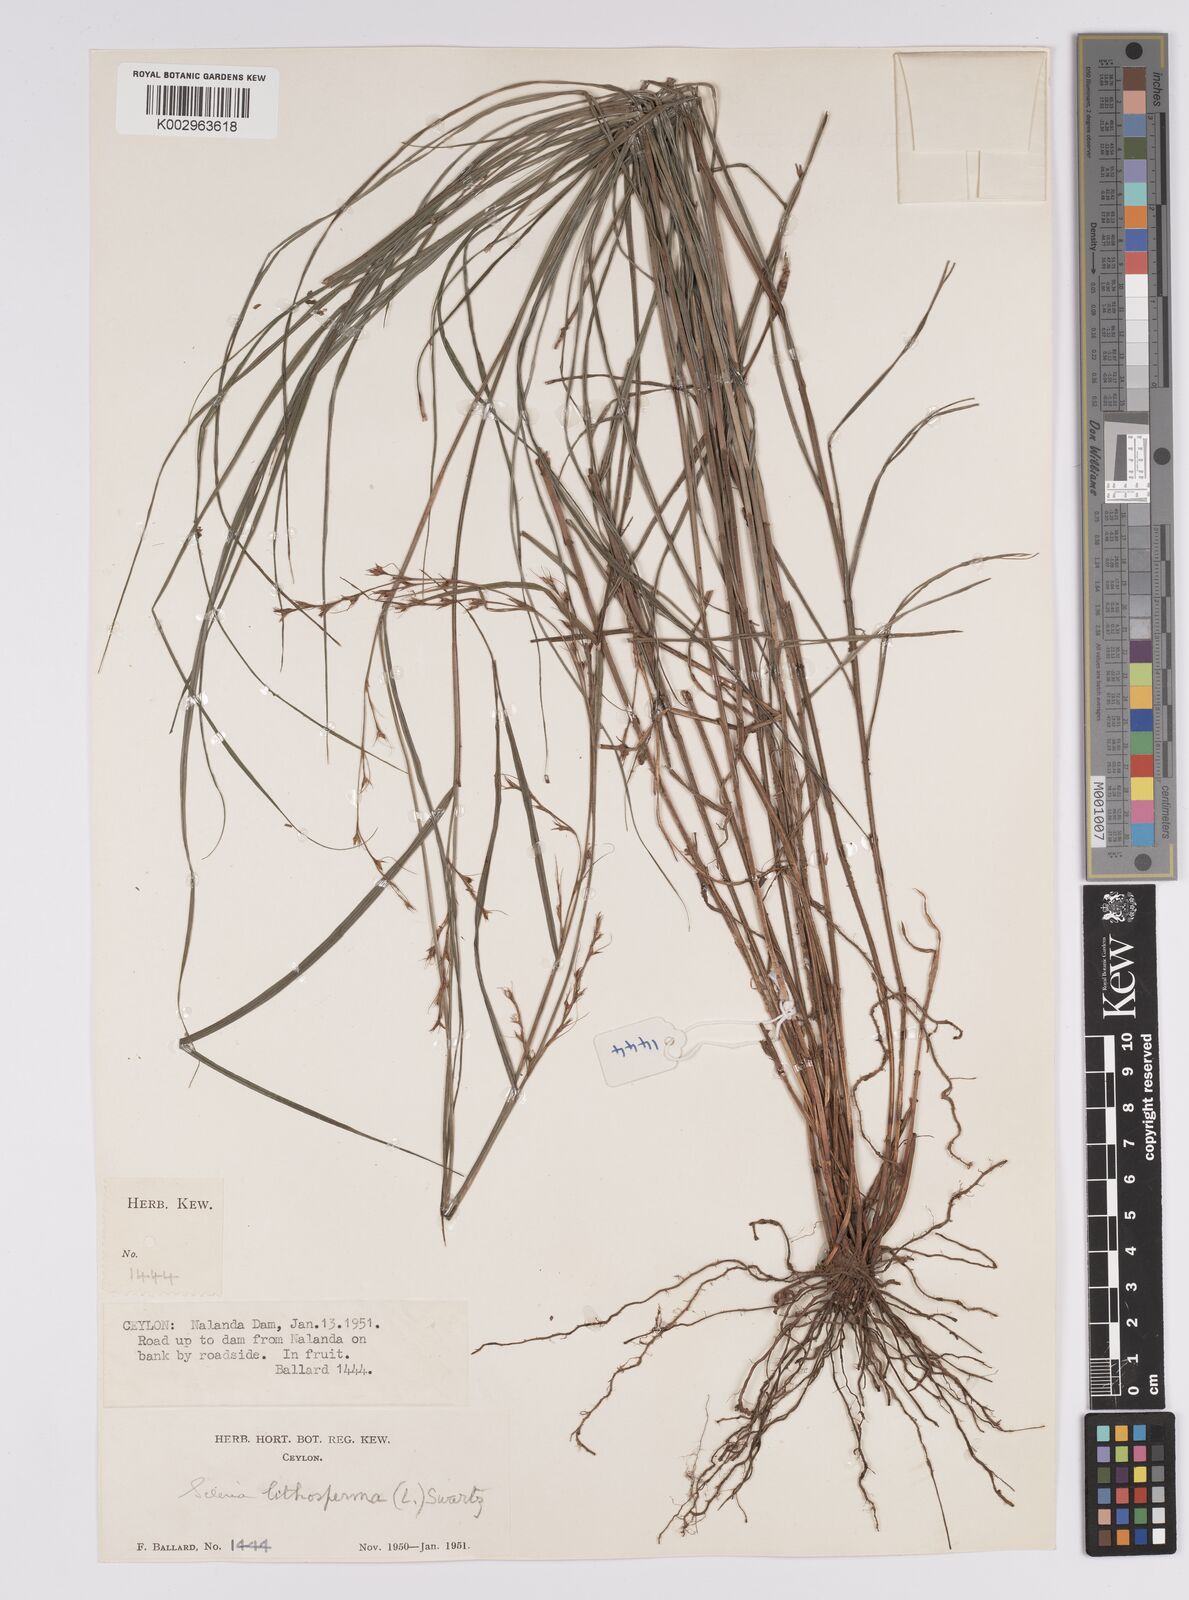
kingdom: Plantae
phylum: Tracheophyta
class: Liliopsida
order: Poales
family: Cyperaceae
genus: Scleria
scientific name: Scleria lithosperma
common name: Florida keys nut-rush
